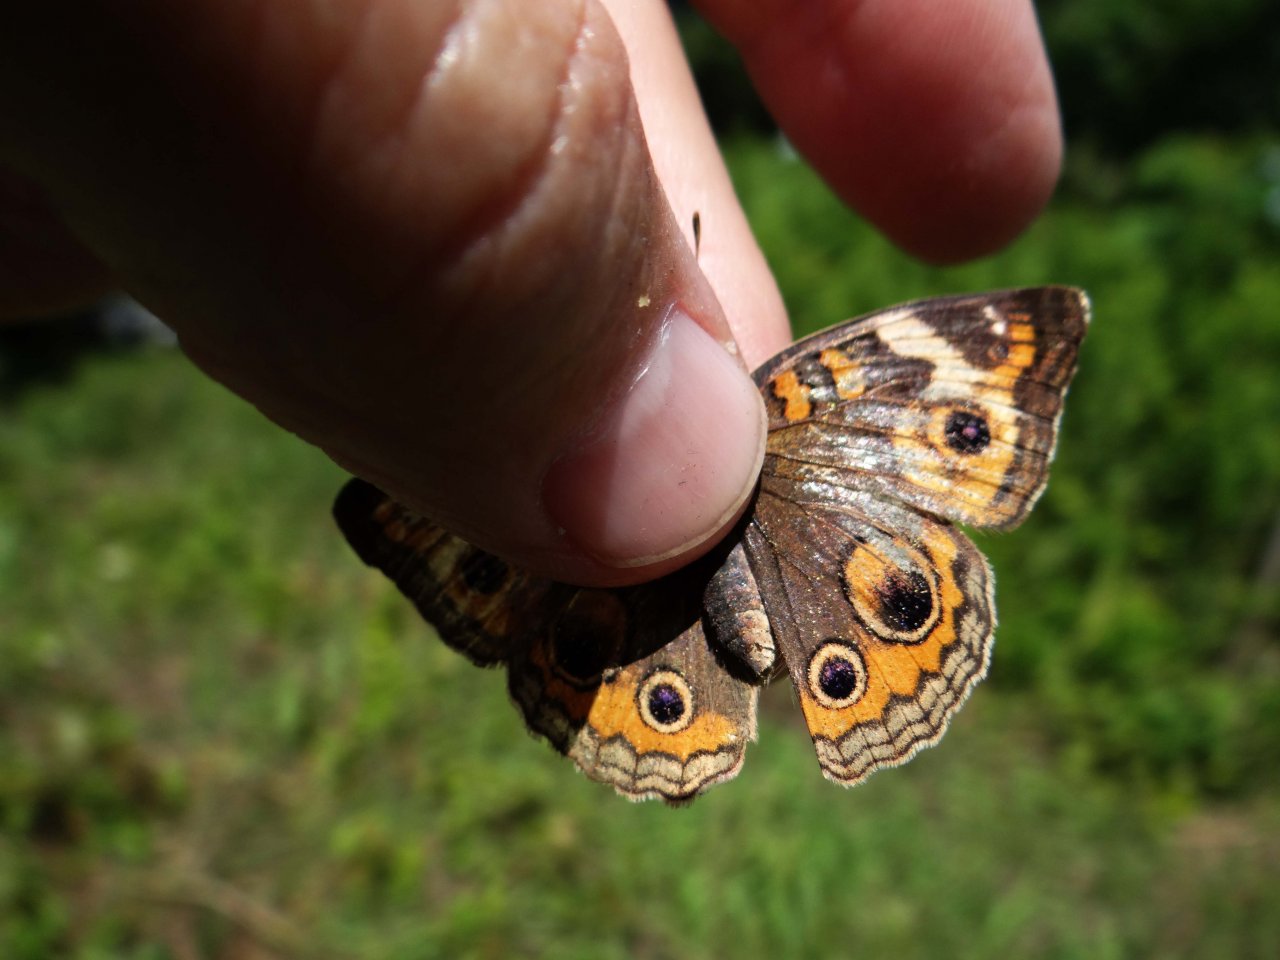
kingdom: Animalia
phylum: Arthropoda
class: Insecta
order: Lepidoptera
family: Nymphalidae
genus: Junonia
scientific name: Junonia coenia
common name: Common Buckeye
